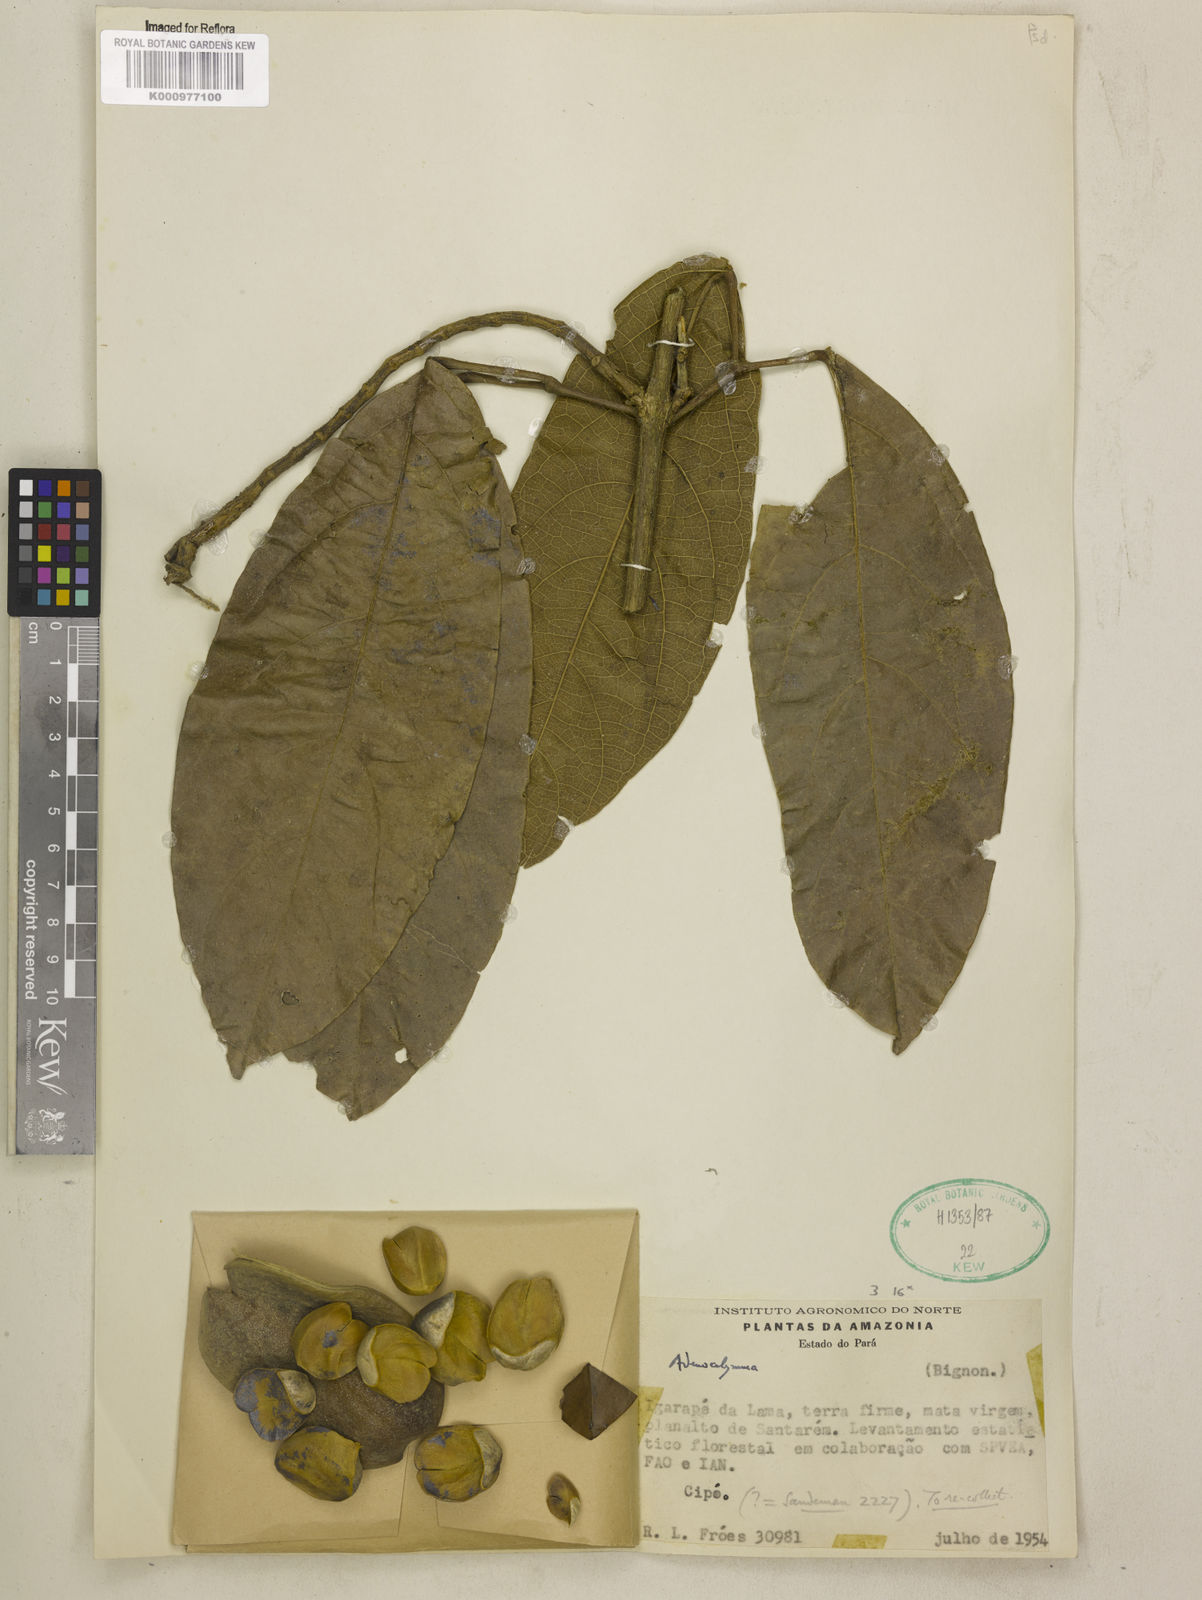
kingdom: Plantae
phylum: Tracheophyta
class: Magnoliopsida
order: Lamiales
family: Bignoniaceae
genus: Adenocalymma
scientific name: Adenocalymma
